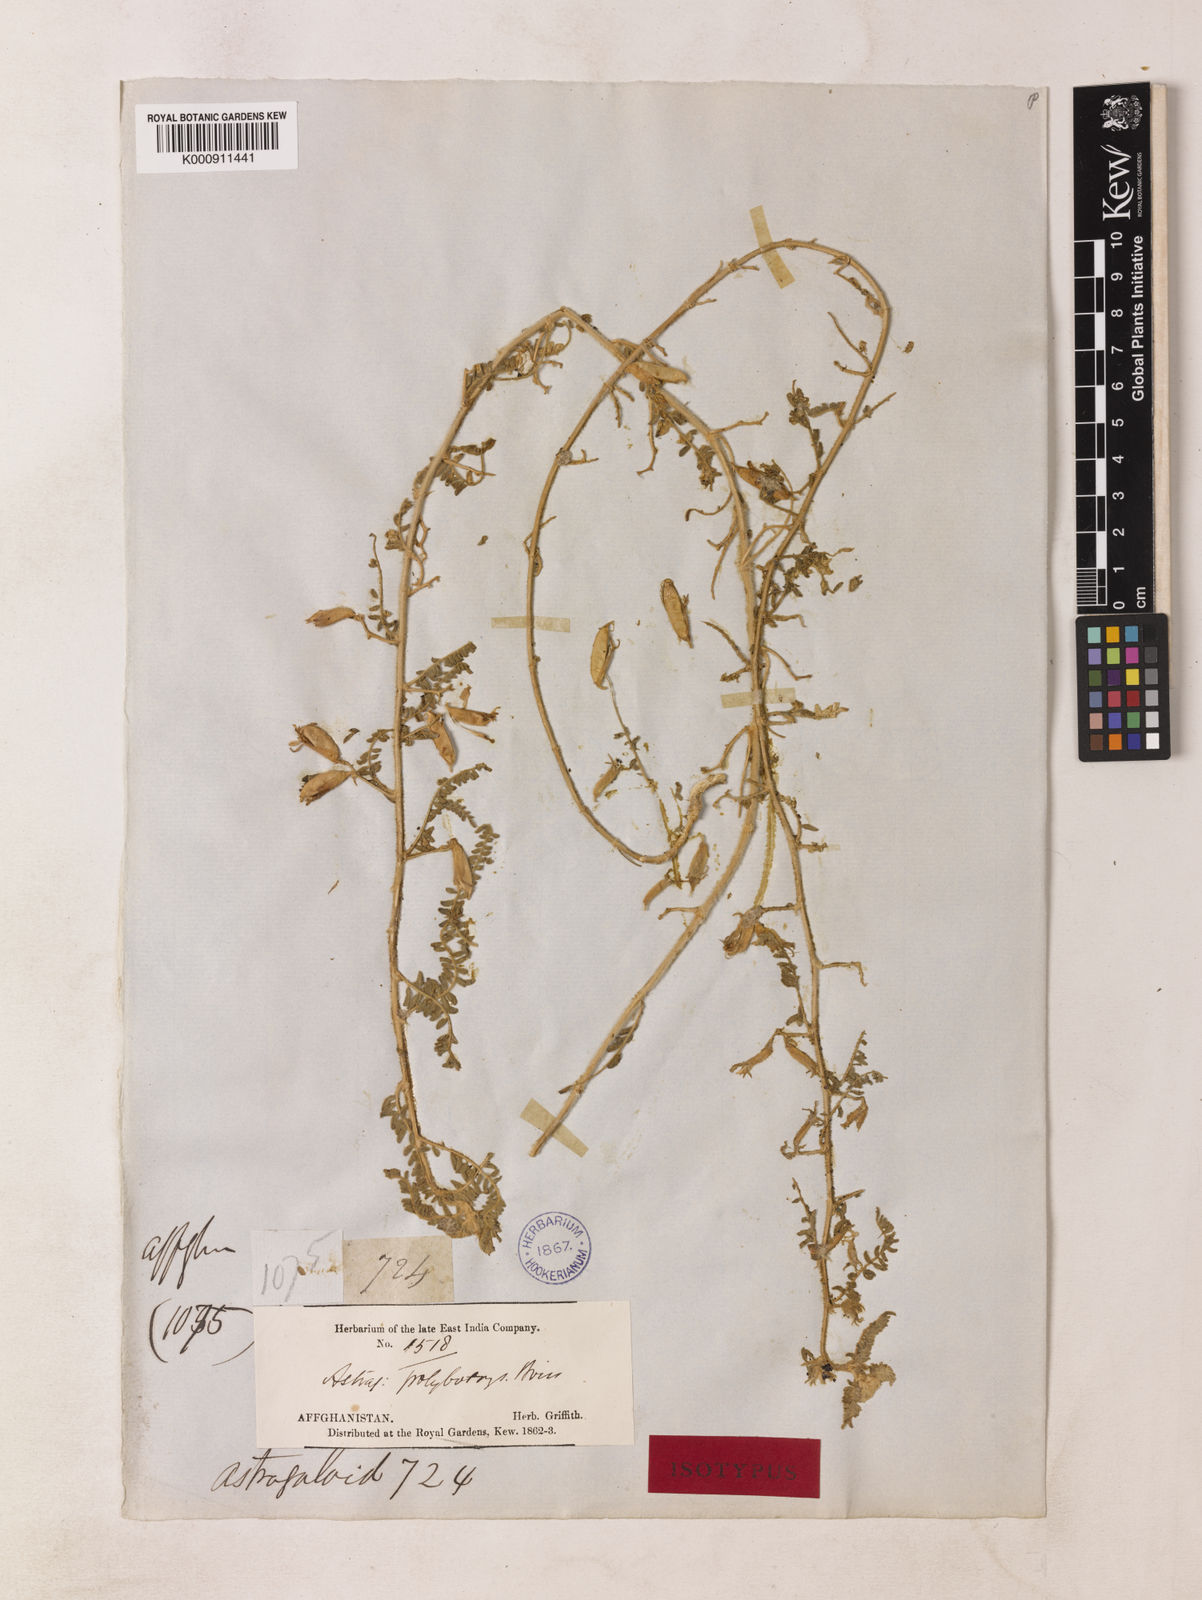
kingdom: Plantae
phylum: Tracheophyta
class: Magnoliopsida
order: Fabales
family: Fabaceae
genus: Astragalus
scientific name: Astragalus polybotrys
